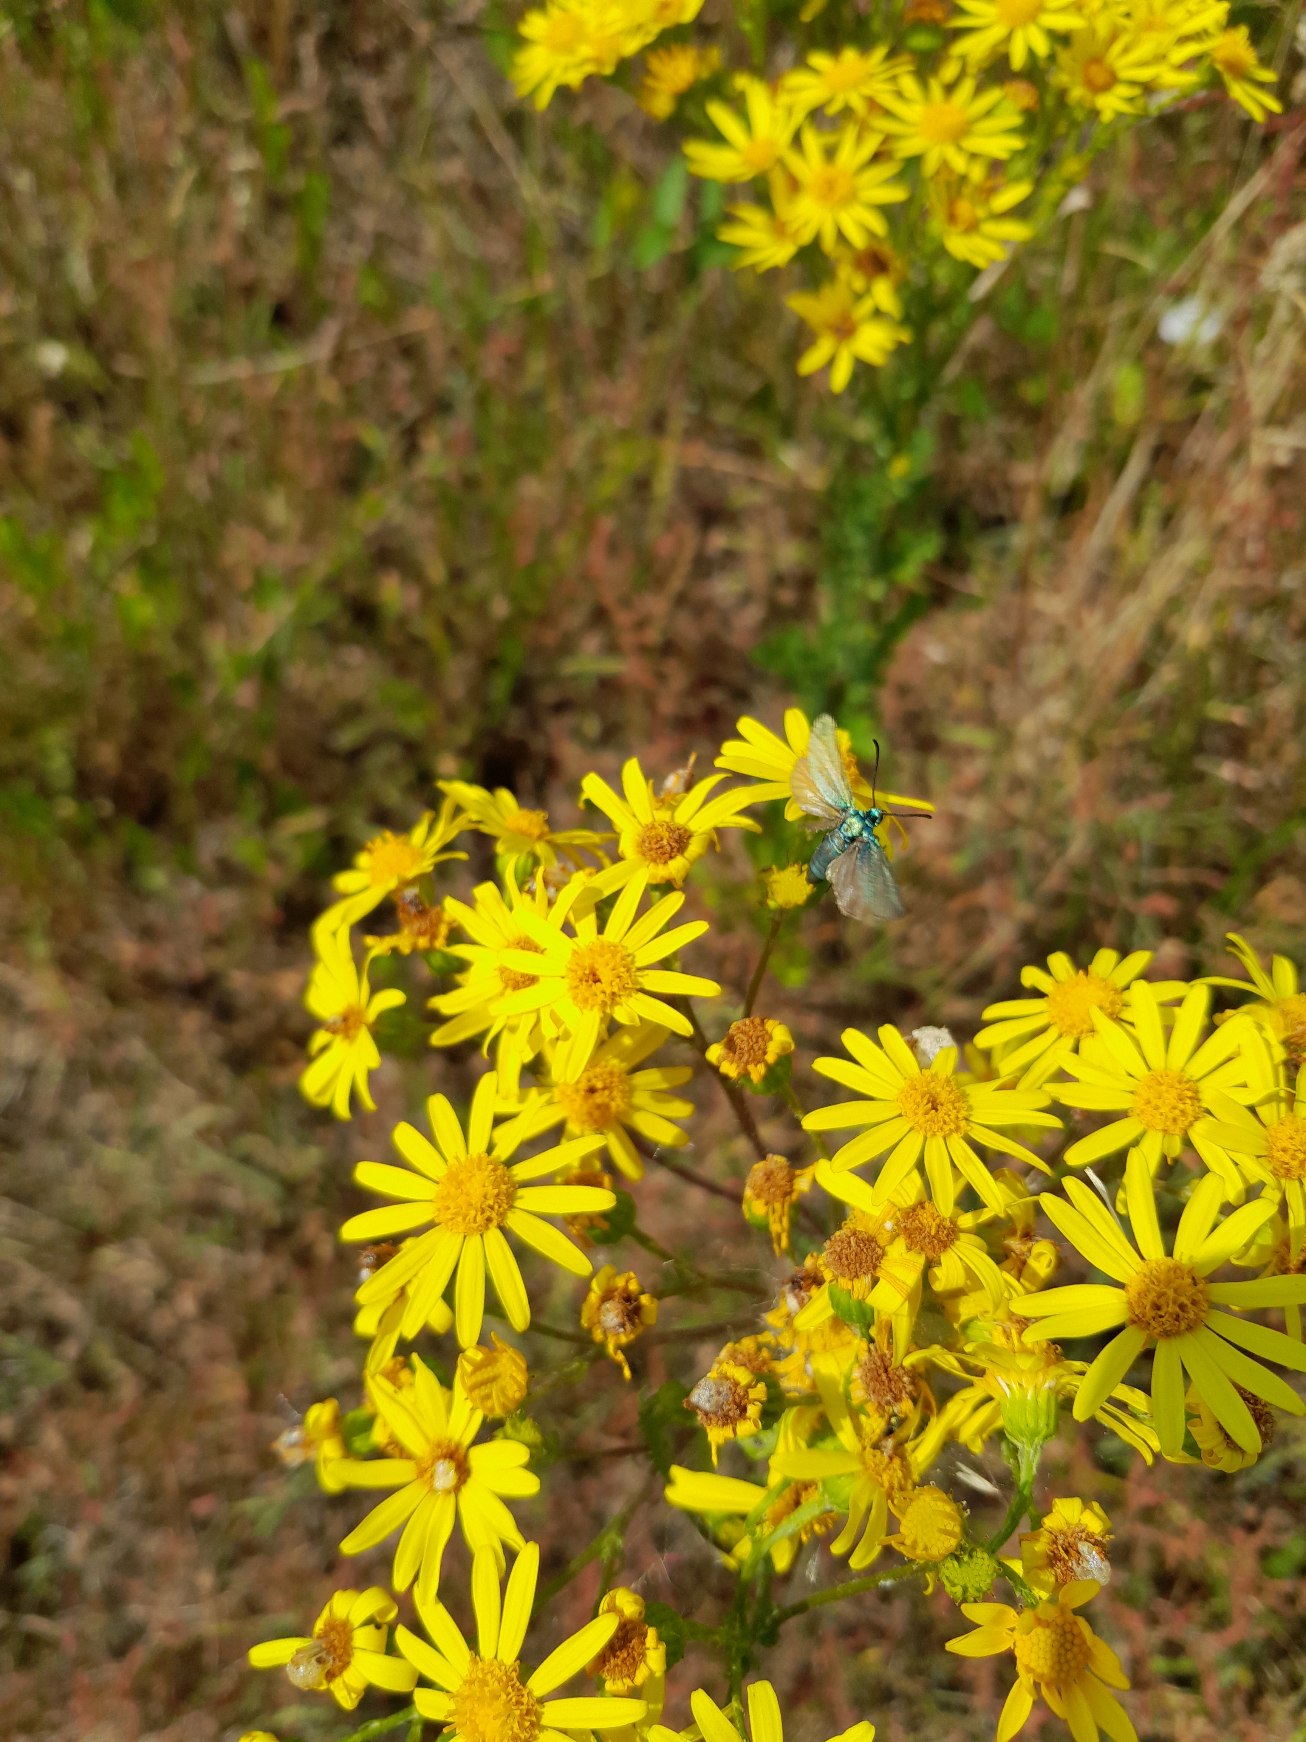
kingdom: Animalia
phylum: Arthropoda
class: Insecta
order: Lepidoptera
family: Zygaenidae
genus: Adscita
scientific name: Adscita statices
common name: Metalvinge
